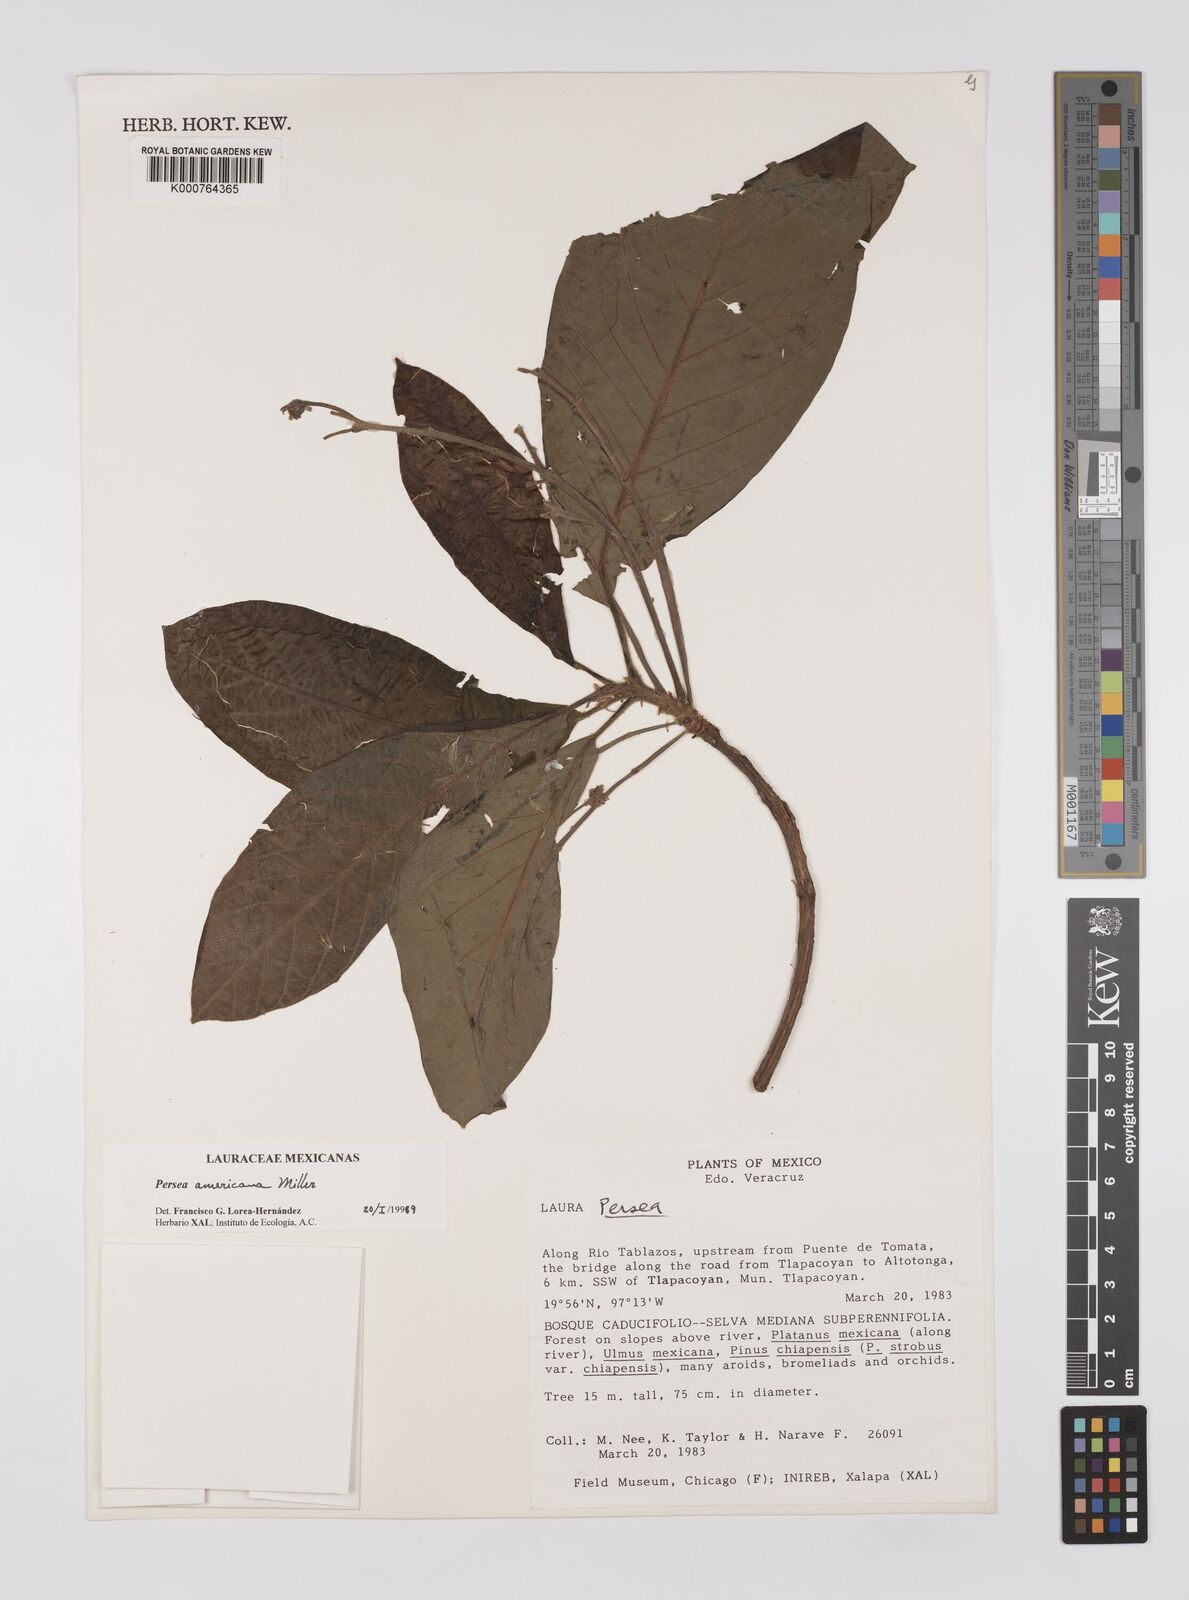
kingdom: Plantae
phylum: Tracheophyta
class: Magnoliopsida
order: Laurales
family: Lauraceae
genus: Persea
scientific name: Persea americana
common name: Avocado
